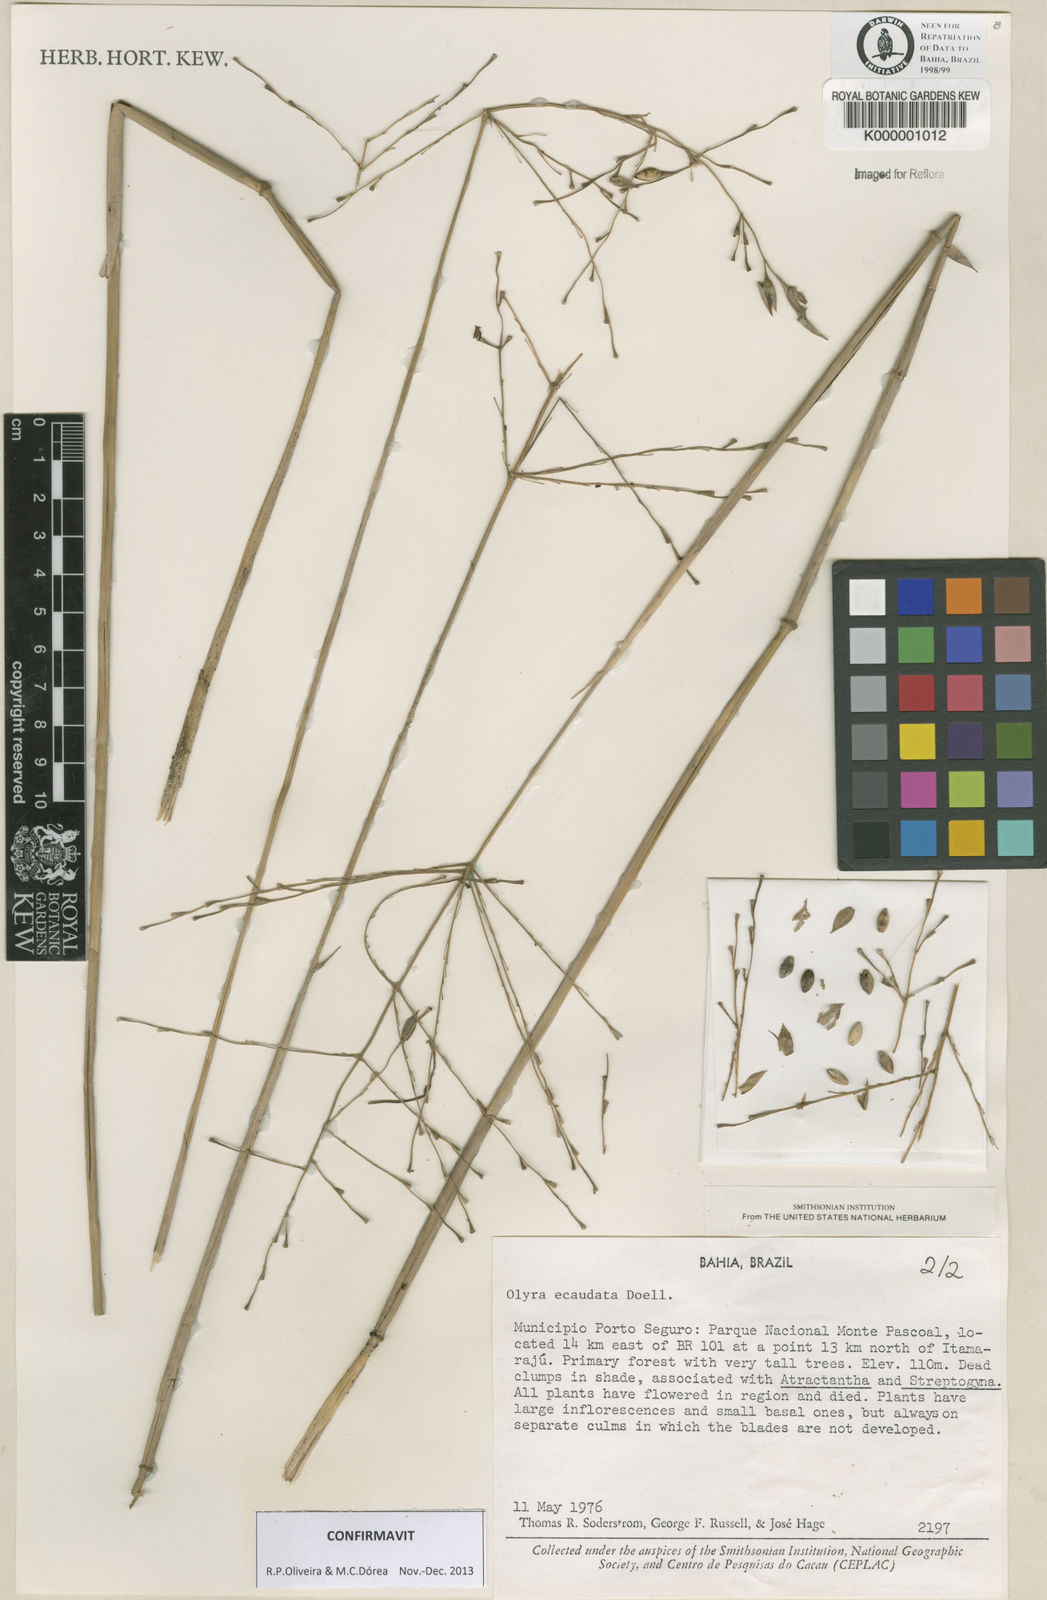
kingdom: Plantae
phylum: Tracheophyta
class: Liliopsida
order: Poales
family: Poaceae
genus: Olyra
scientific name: Olyra
